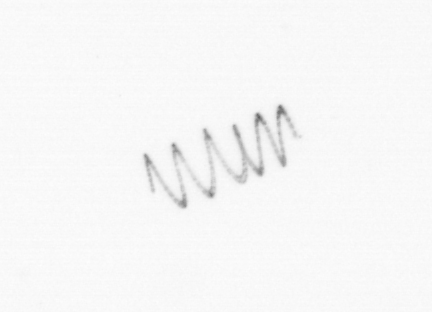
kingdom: Chromista
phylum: Ochrophyta
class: Bacillariophyceae
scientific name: Bacillariophyceae
